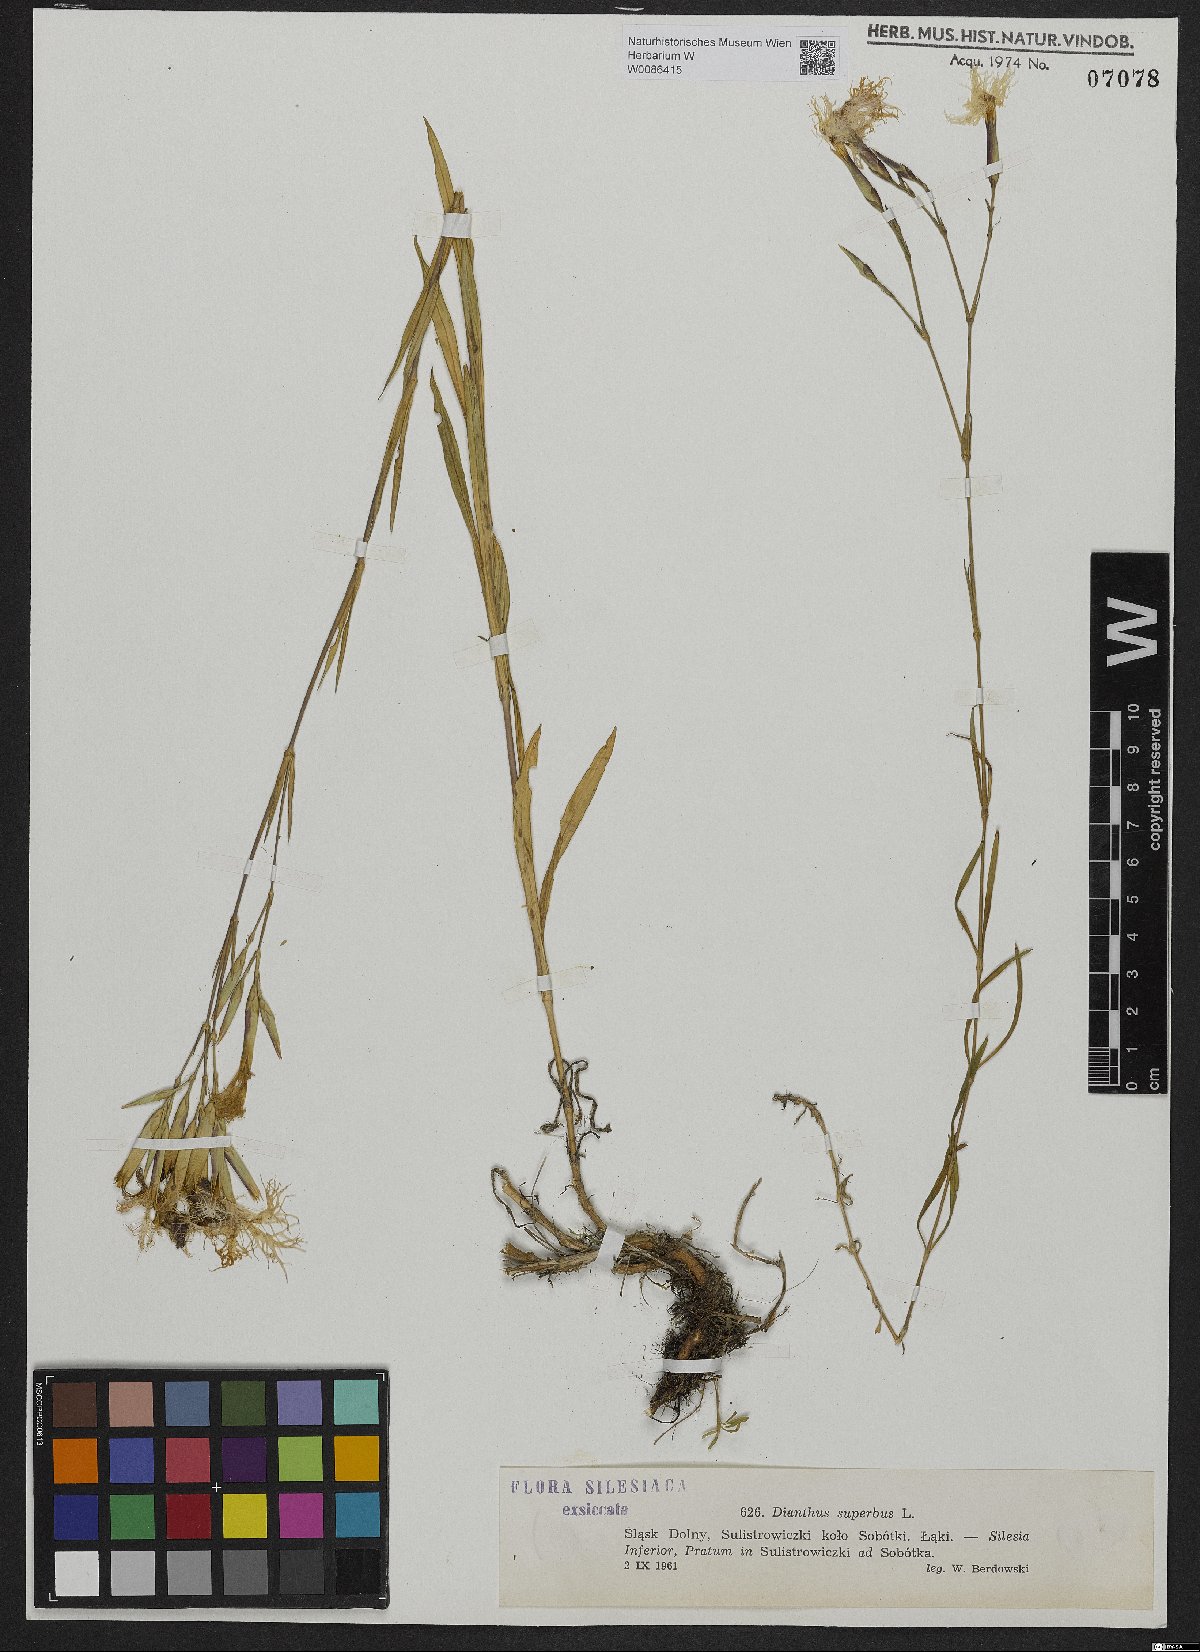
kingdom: Plantae
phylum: Tracheophyta
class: Magnoliopsida
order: Caryophyllales
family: Caryophyllaceae
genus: Dianthus
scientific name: Dianthus superbus
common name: Fringed pink
